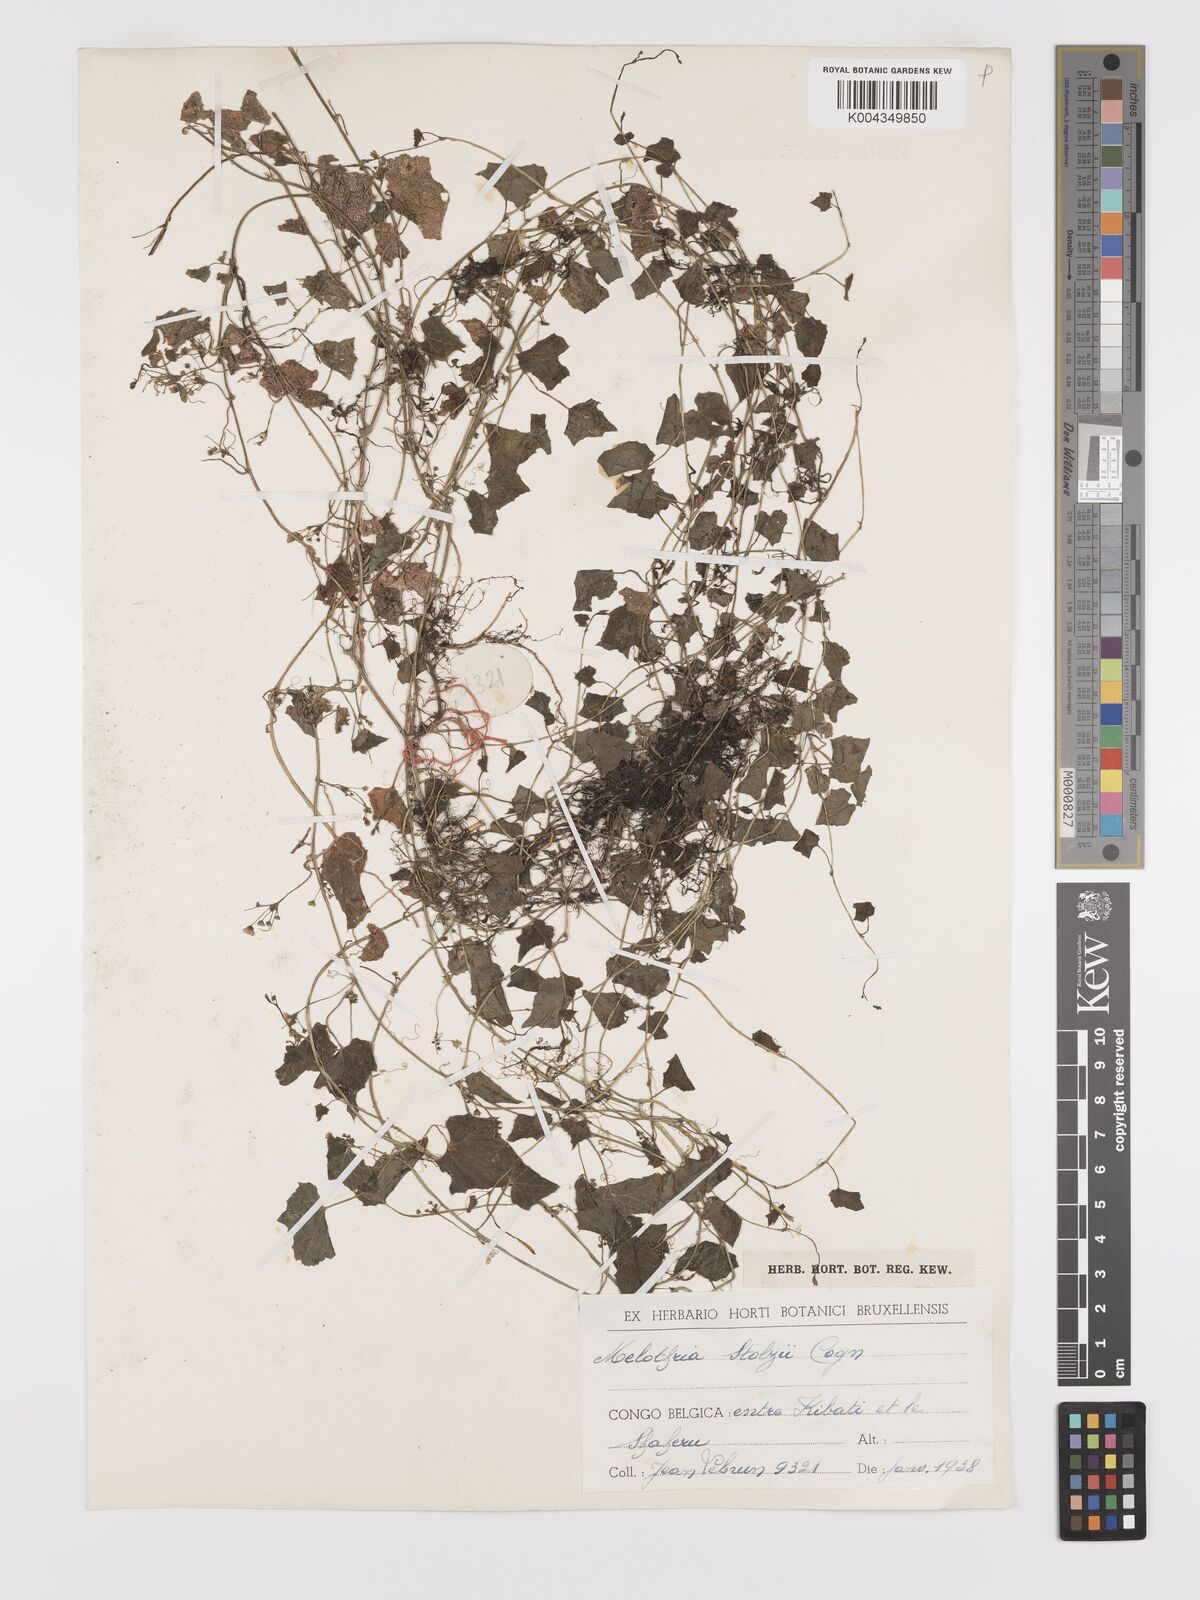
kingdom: Plantae
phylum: Tracheophyta
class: Magnoliopsida
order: Cucurbitales
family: Cucurbitaceae
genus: Zehneria
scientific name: Zehneria minutiflora
